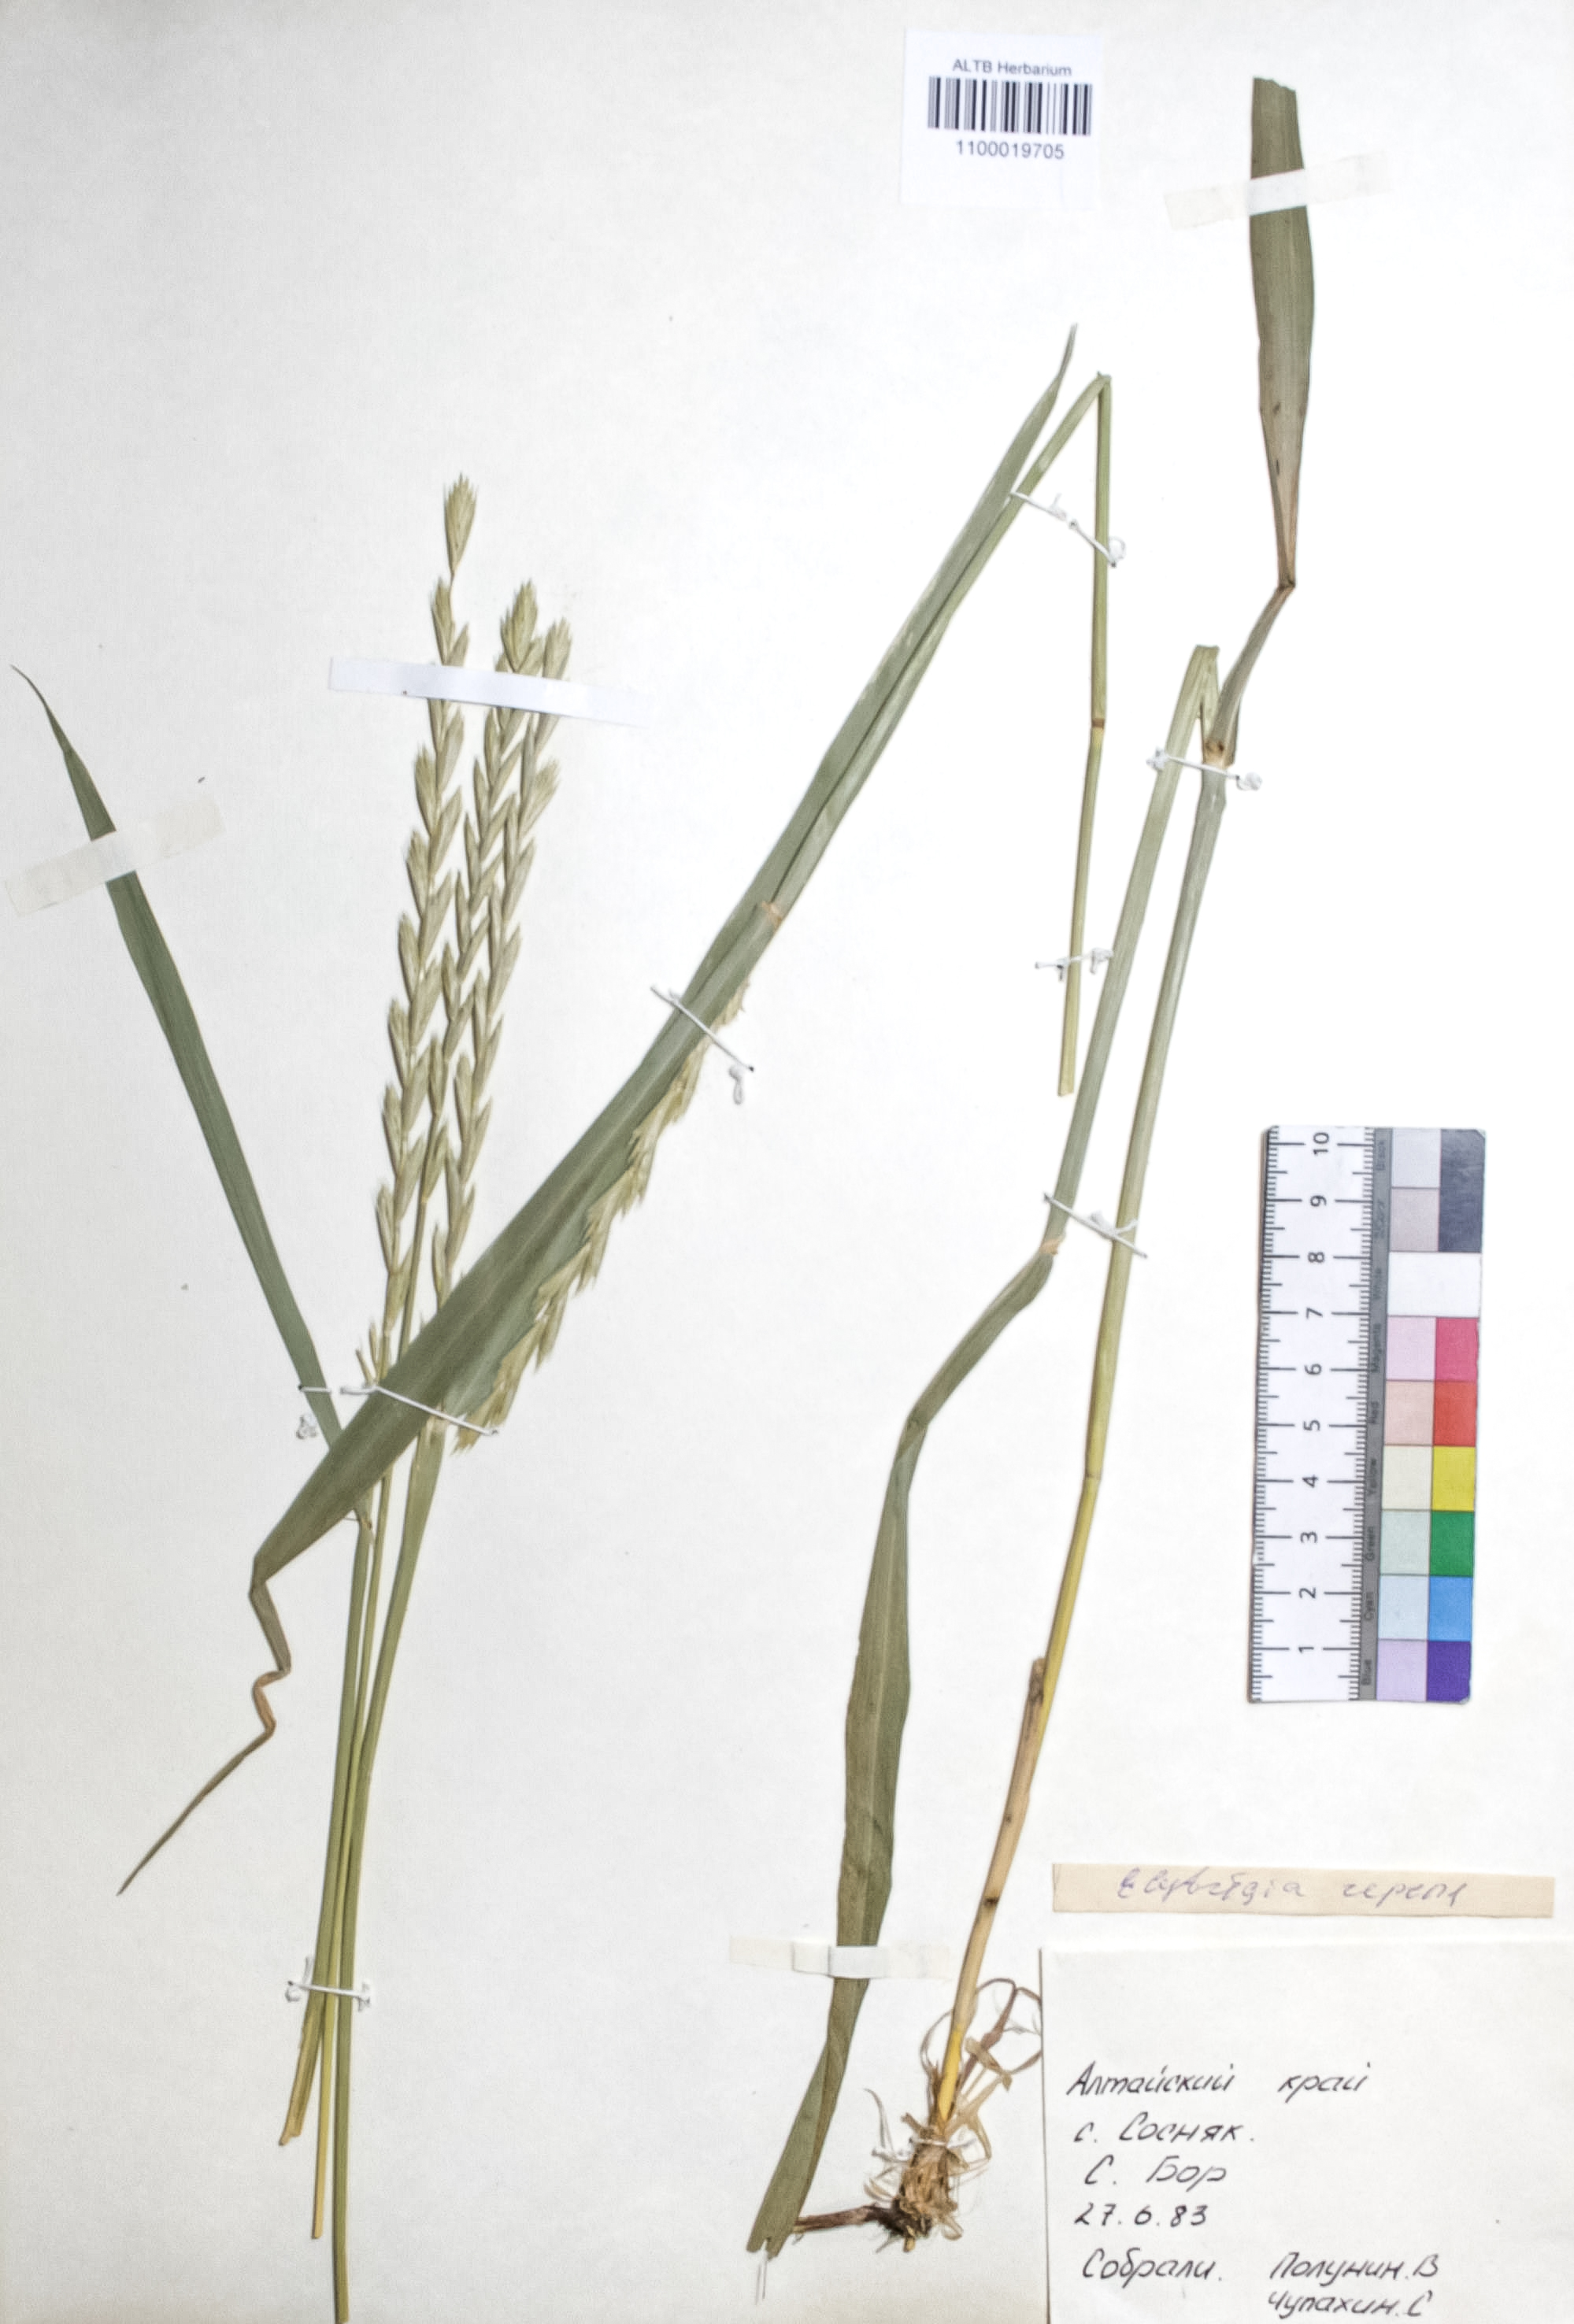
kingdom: Plantae
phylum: Tracheophyta
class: Liliopsida
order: Poales
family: Poaceae
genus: Elymus
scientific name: Elymus repens
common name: Quackgrass
